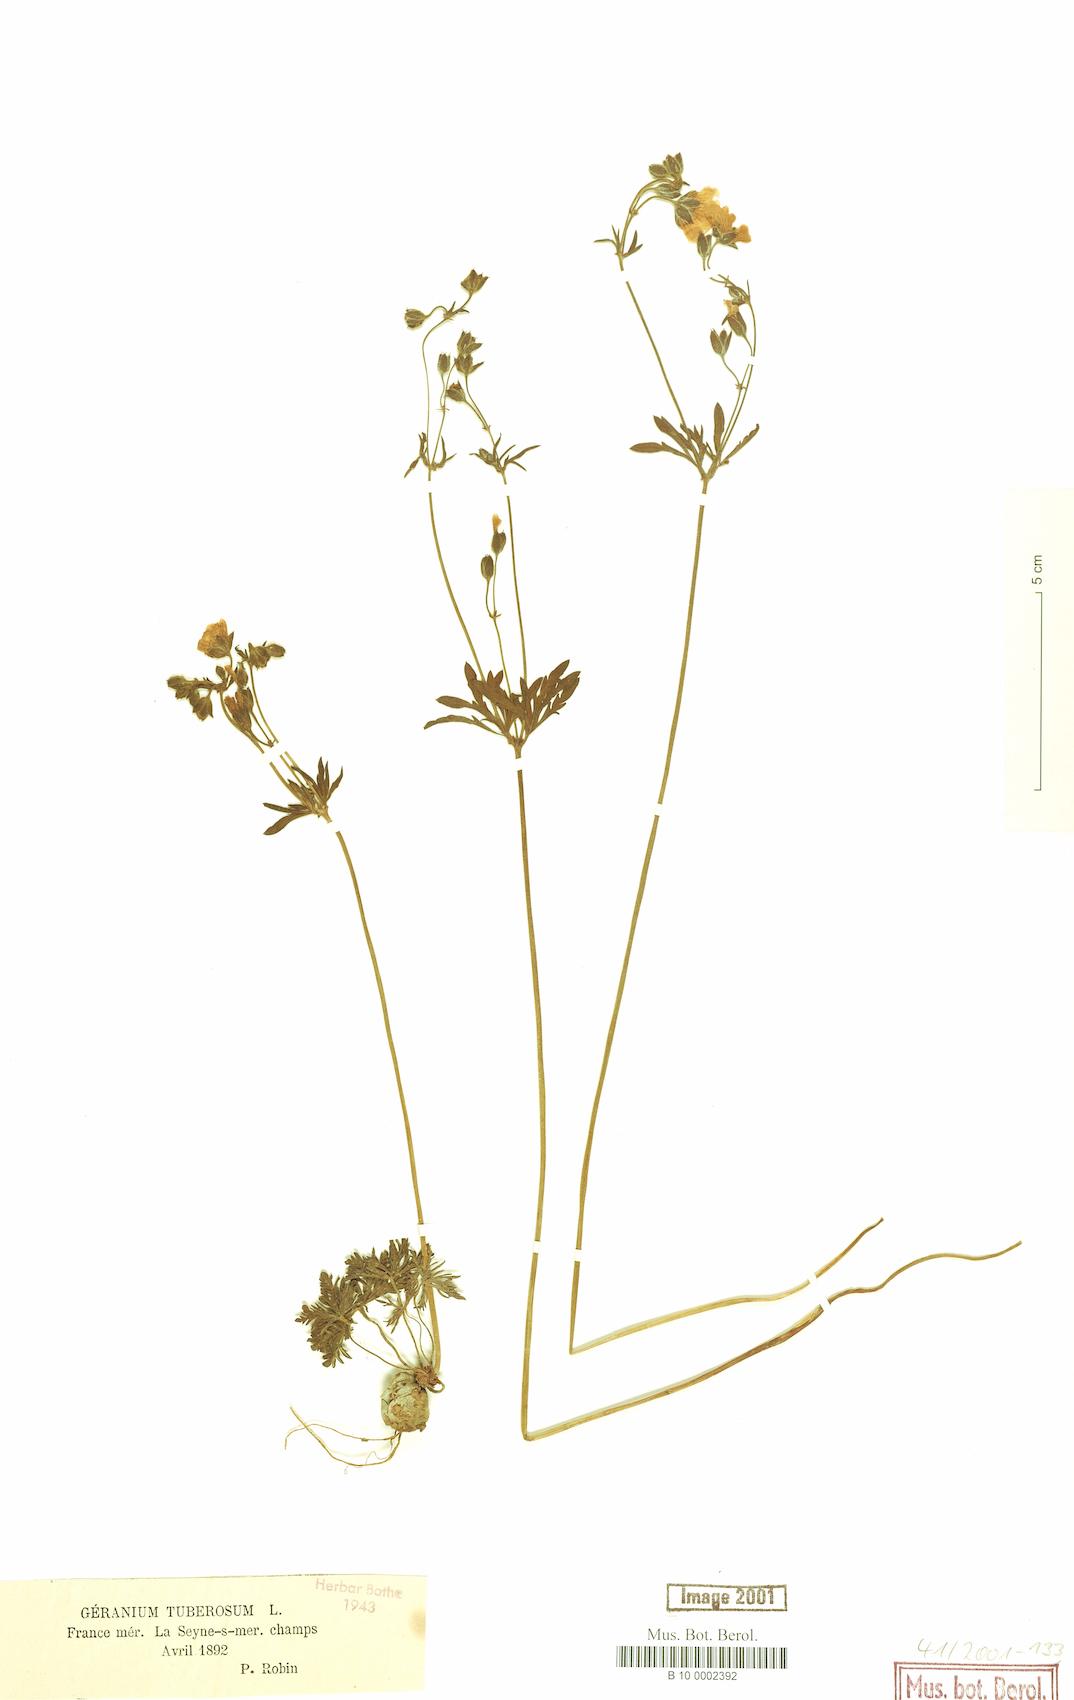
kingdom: Plantae
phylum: Tracheophyta
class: Magnoliopsida
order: Geraniales
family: Geraniaceae
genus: Geranium
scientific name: Geranium tuberosum
